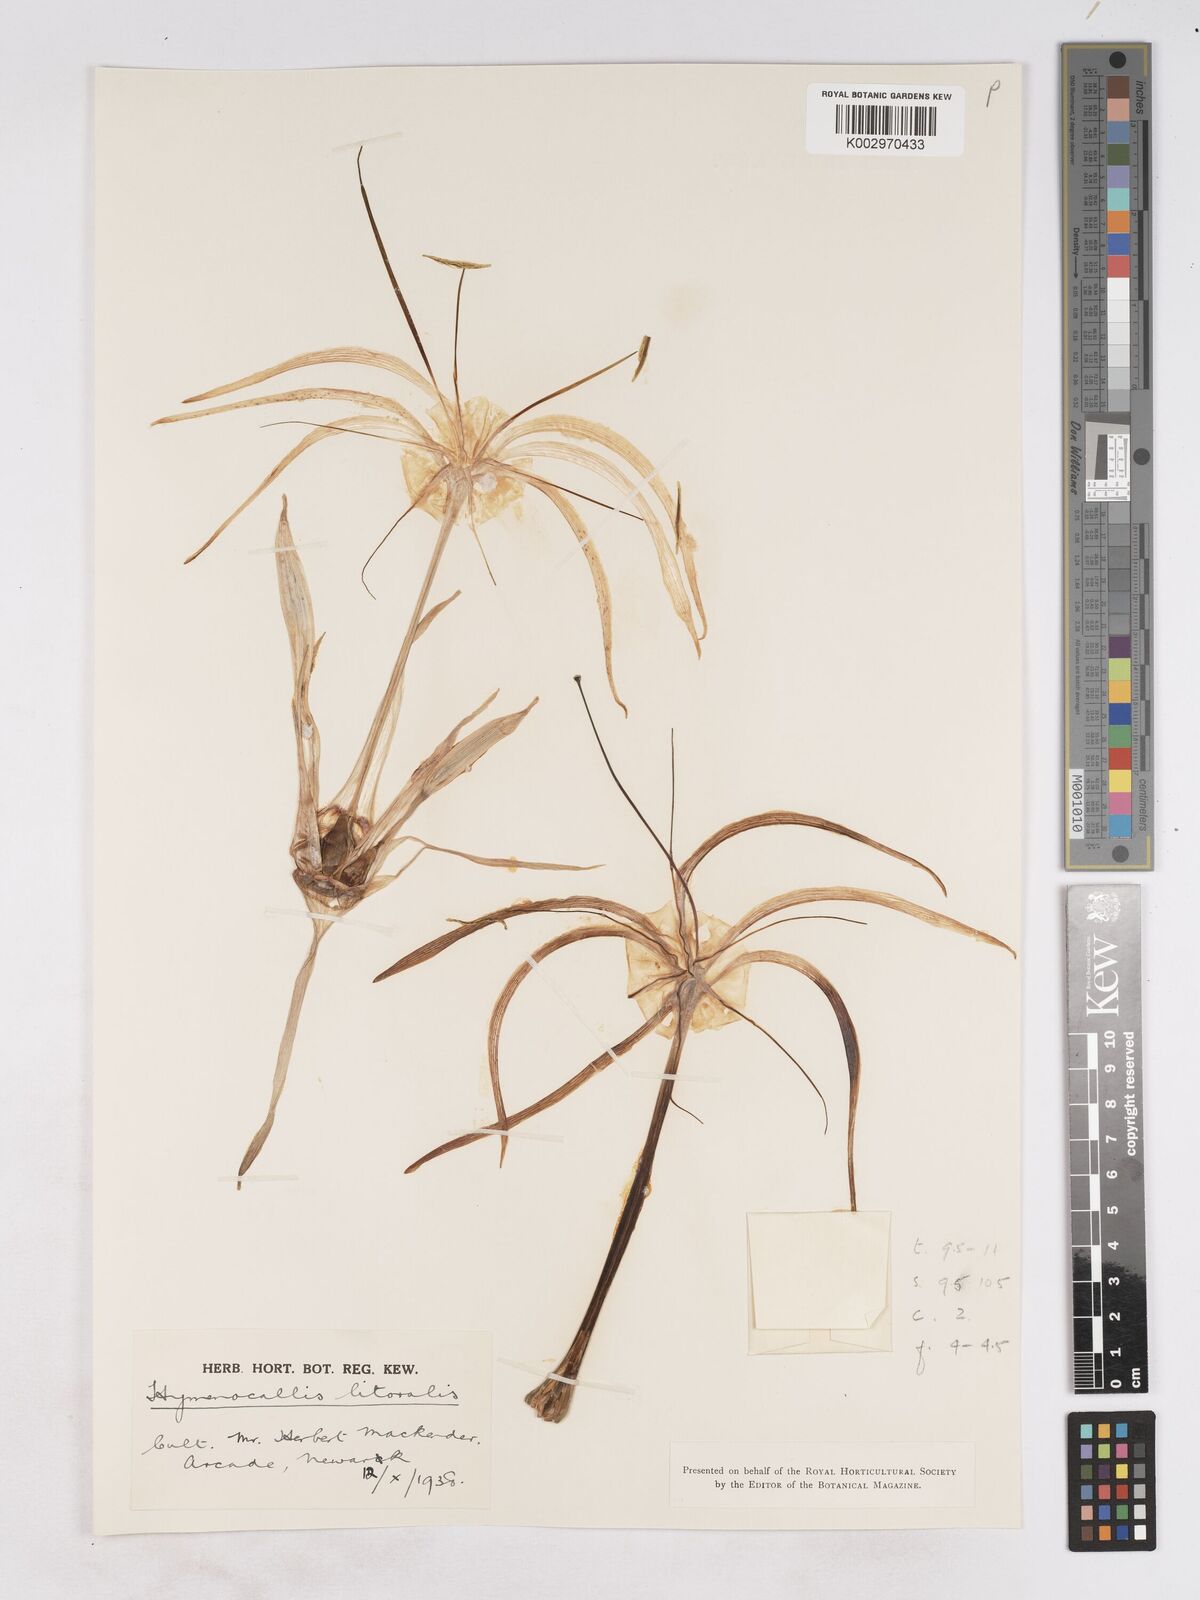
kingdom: Plantae
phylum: Tracheophyta
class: Liliopsida
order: Asparagales
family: Amaryllidaceae
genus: Hymenocallis
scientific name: Hymenocallis acutifolia
